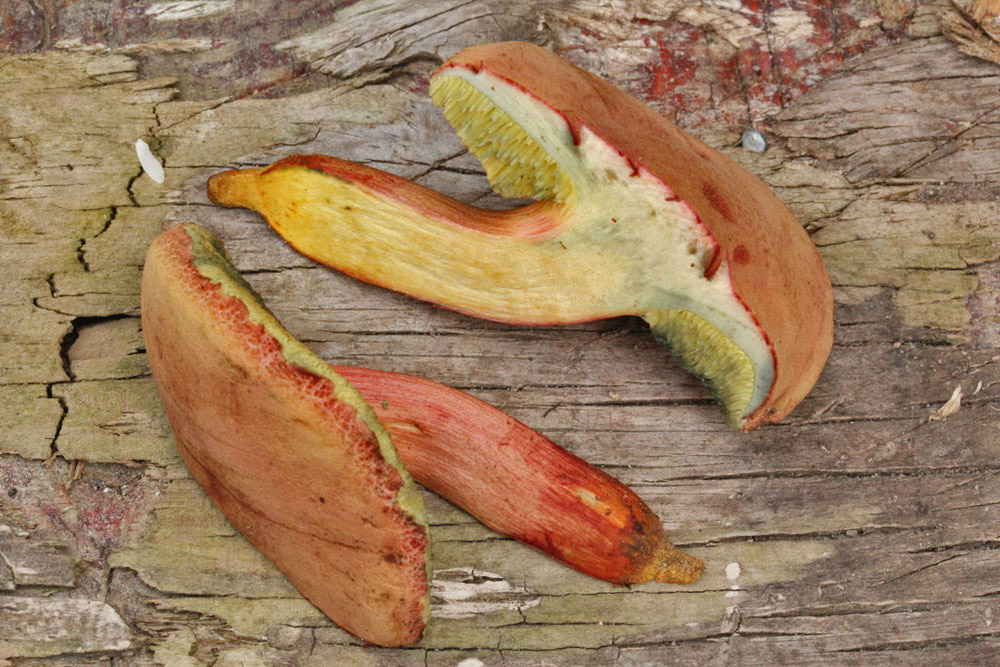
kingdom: Fungi
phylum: Basidiomycota
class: Agaricomycetes
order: Boletales
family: Boletaceae
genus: Hortiboletus
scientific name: Hortiboletus engelii
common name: fersken-rørhat
